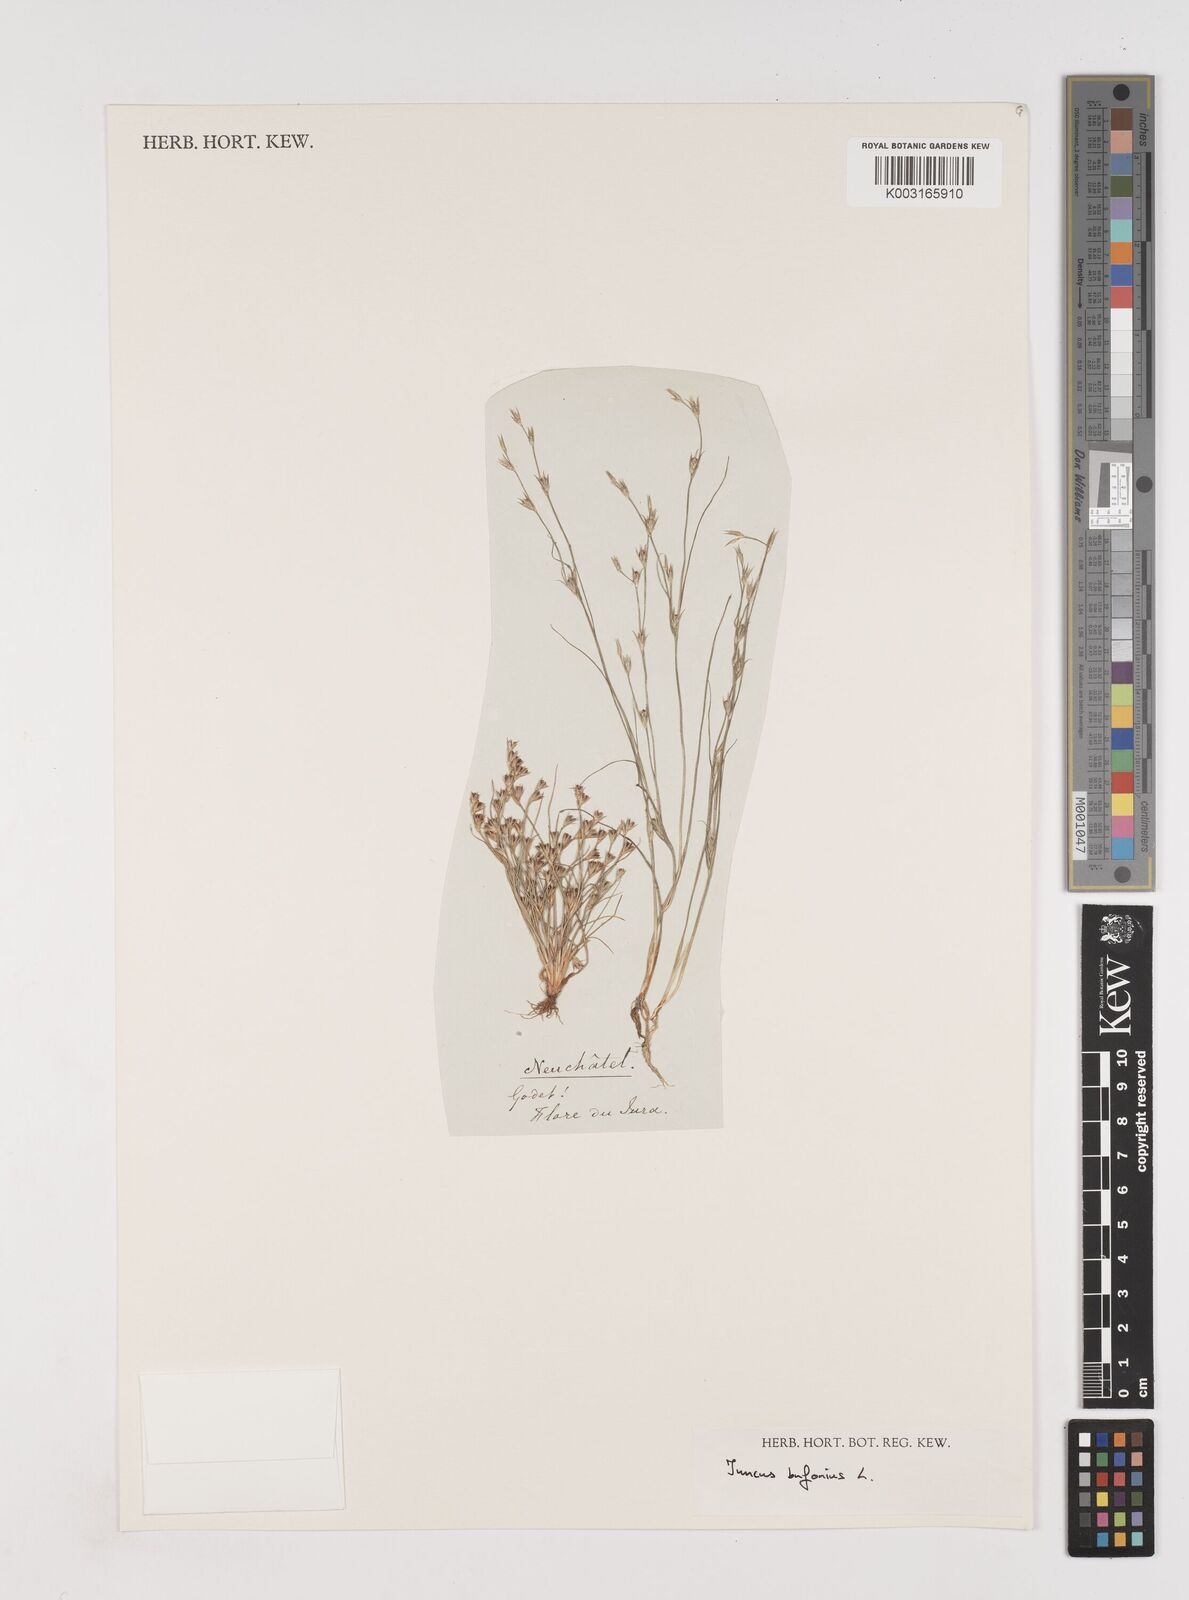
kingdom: Plantae
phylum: Tracheophyta
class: Liliopsida
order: Poales
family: Juncaceae
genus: Juncus
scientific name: Juncus bufonius
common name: Toad rush
